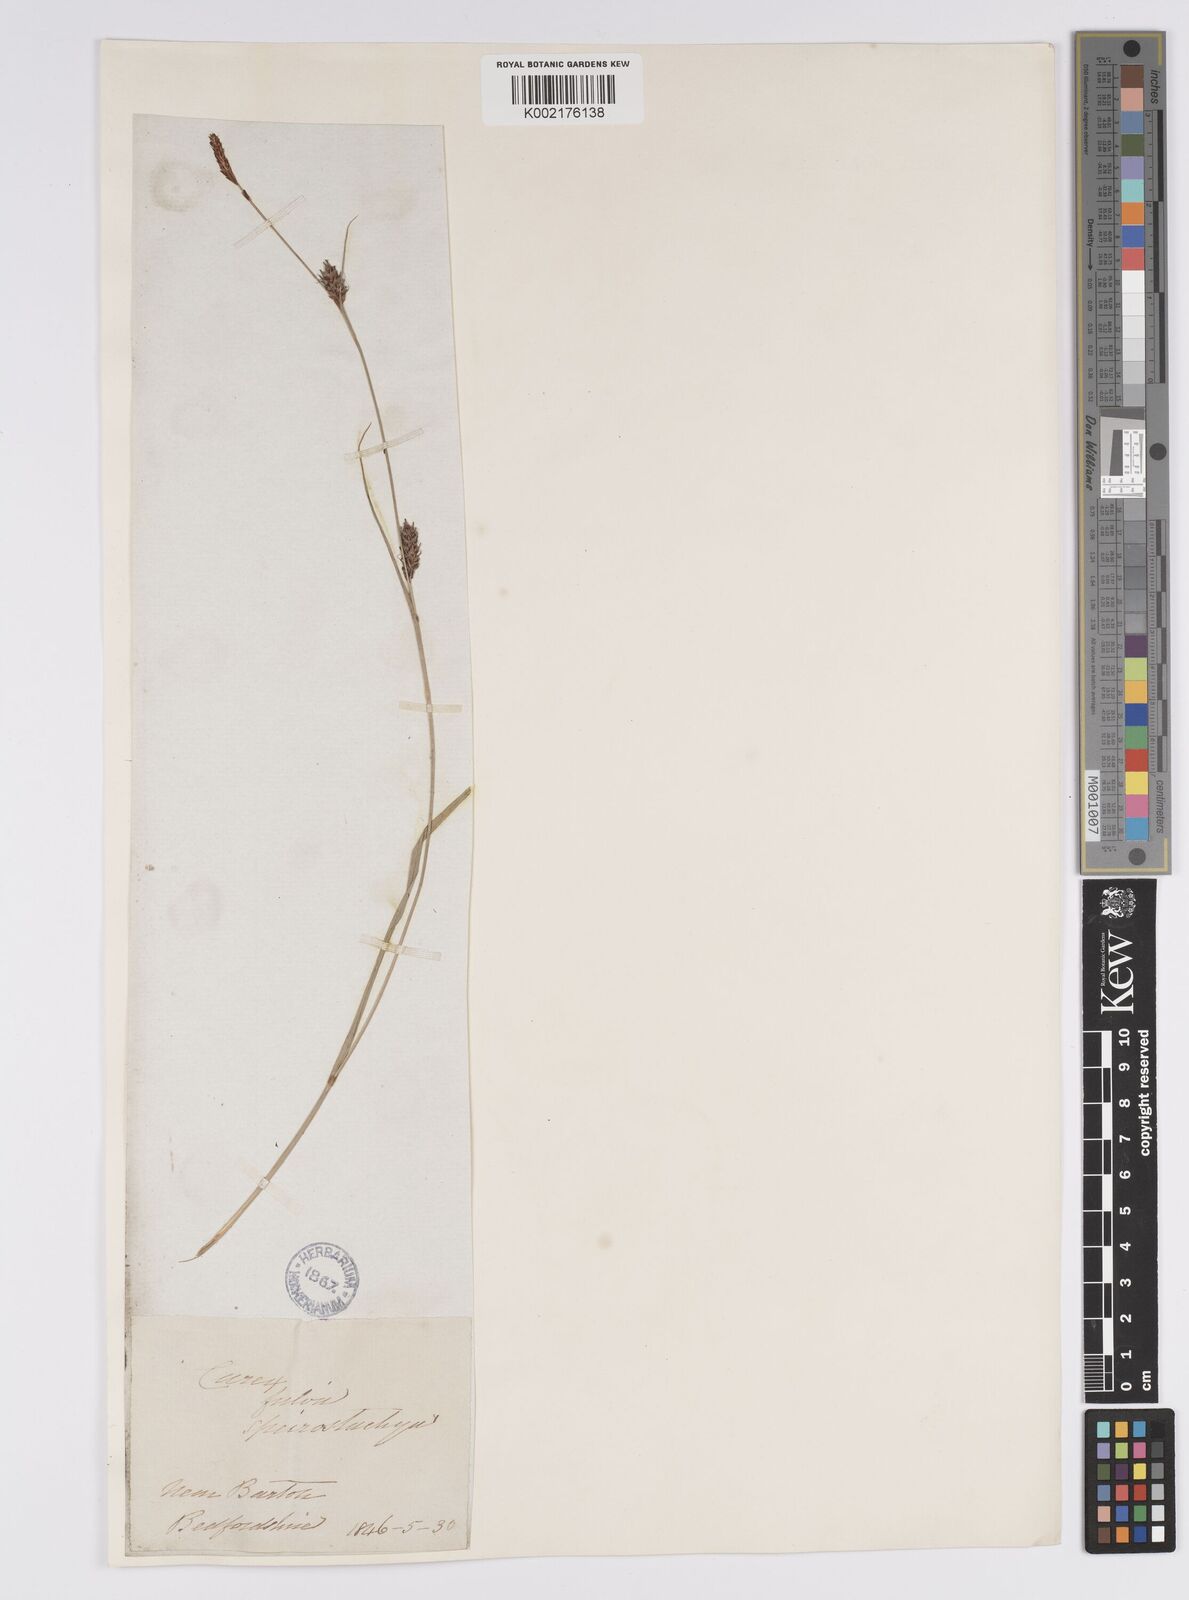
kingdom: Plantae
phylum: Tracheophyta
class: Liliopsida
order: Poales
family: Cyperaceae
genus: Carex
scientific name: Carex distans
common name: Distant sedge
